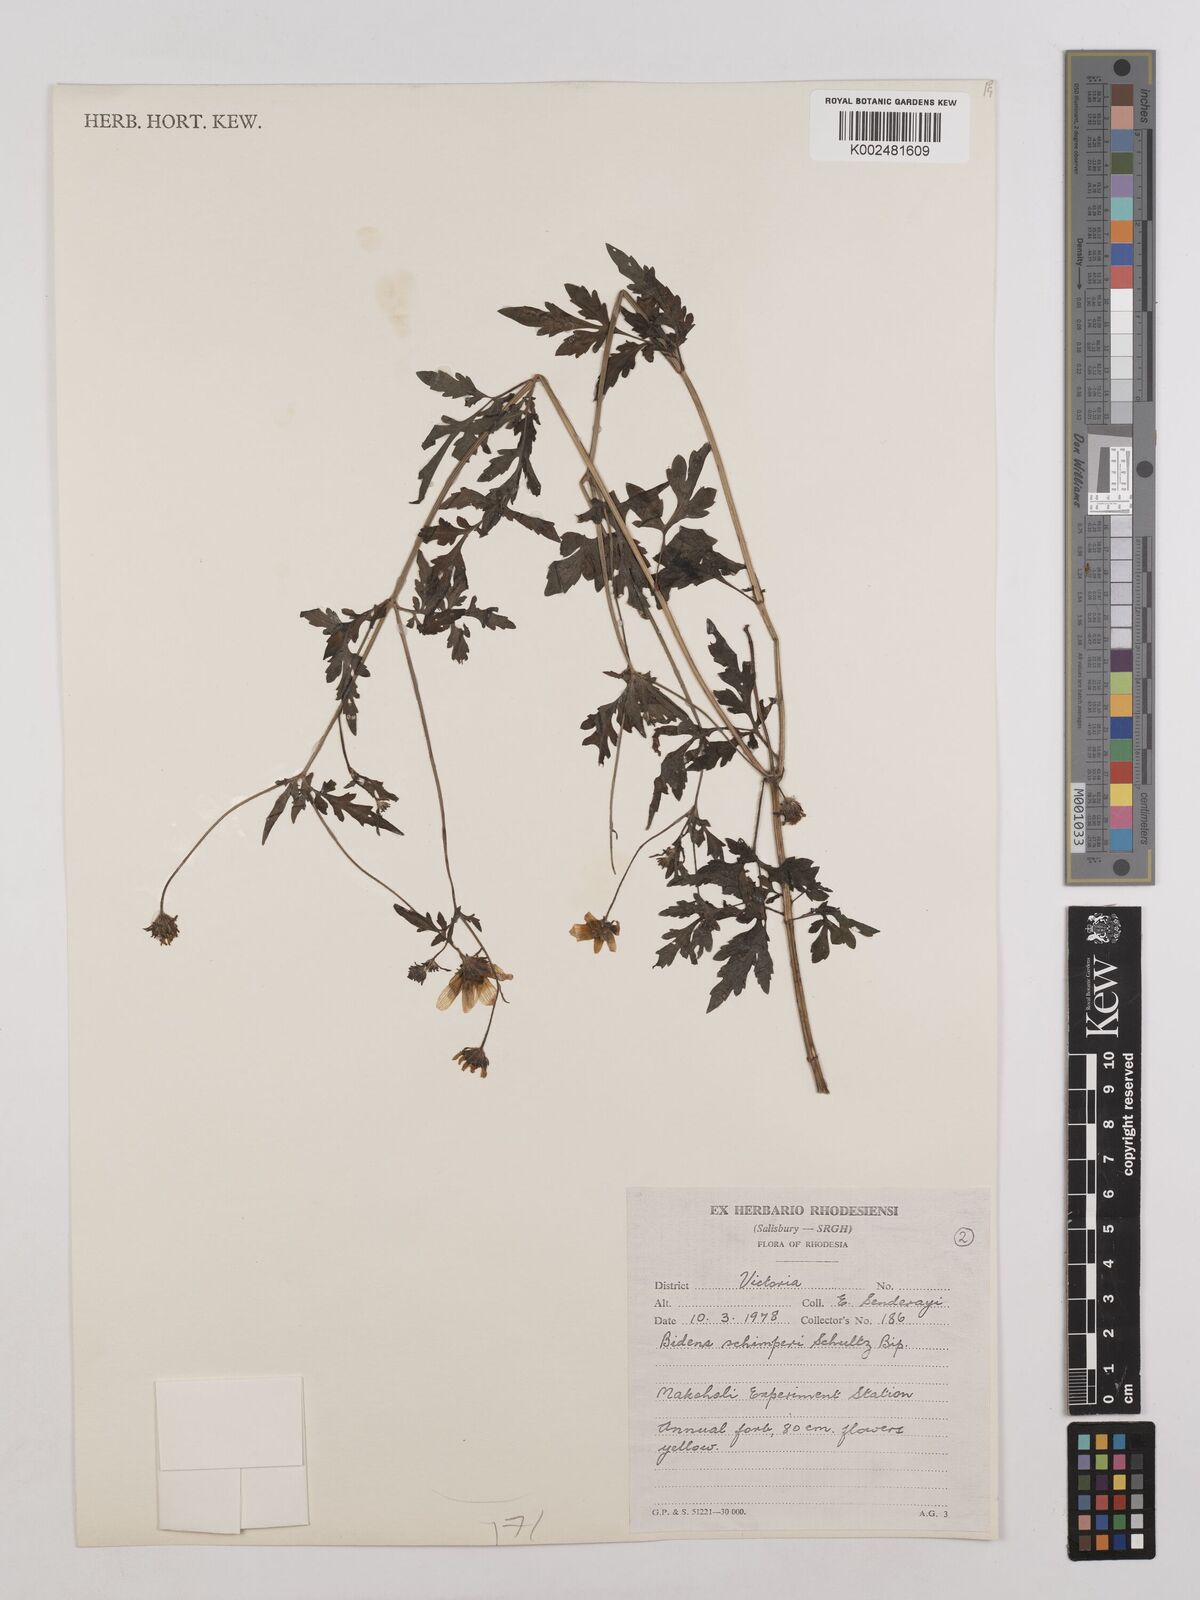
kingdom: Plantae
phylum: Tracheophyta
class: Magnoliopsida
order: Asterales
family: Asteraceae
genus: Bidens
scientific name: Bidens schimperi
